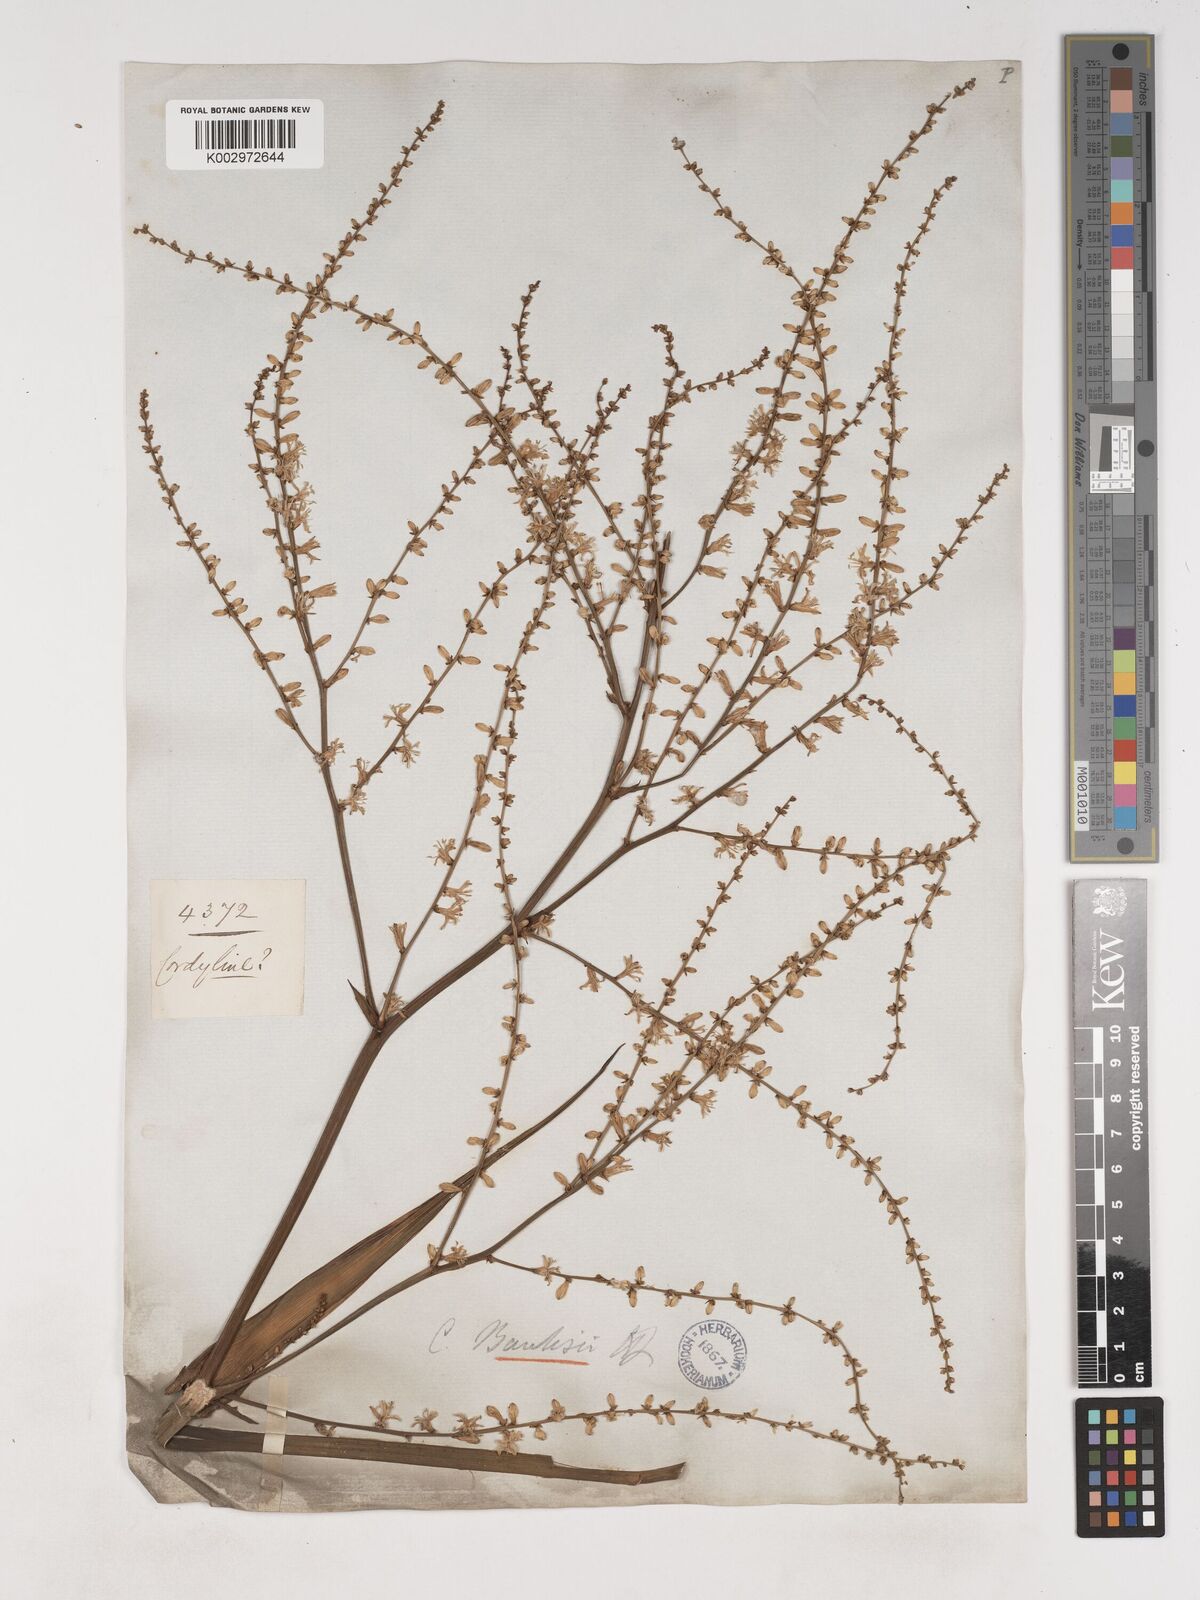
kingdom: Plantae
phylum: Tracheophyta
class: Liliopsida
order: Asparagales
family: Asparagaceae
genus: Cordyline
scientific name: Cordyline banksii
